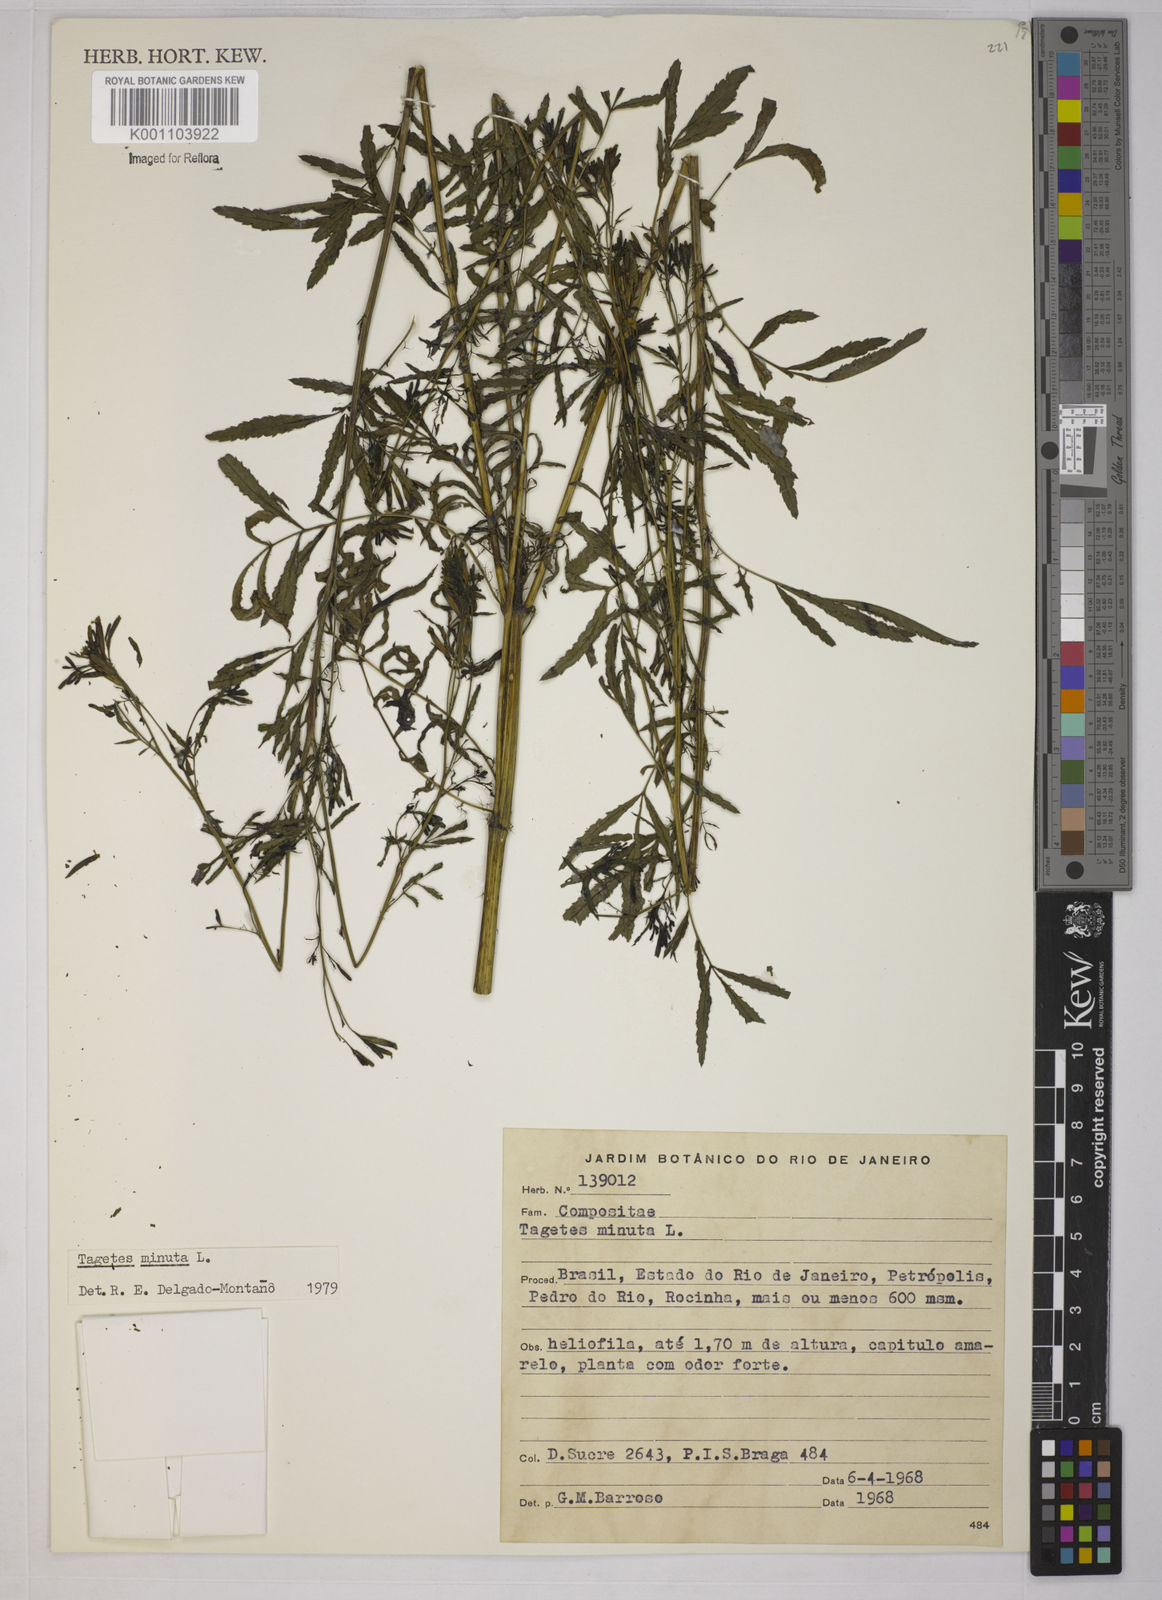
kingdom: Plantae
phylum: Tracheophyta
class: Magnoliopsida
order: Asterales
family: Asteraceae
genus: Tagetes
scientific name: Tagetes minuta
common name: Muster john henry
